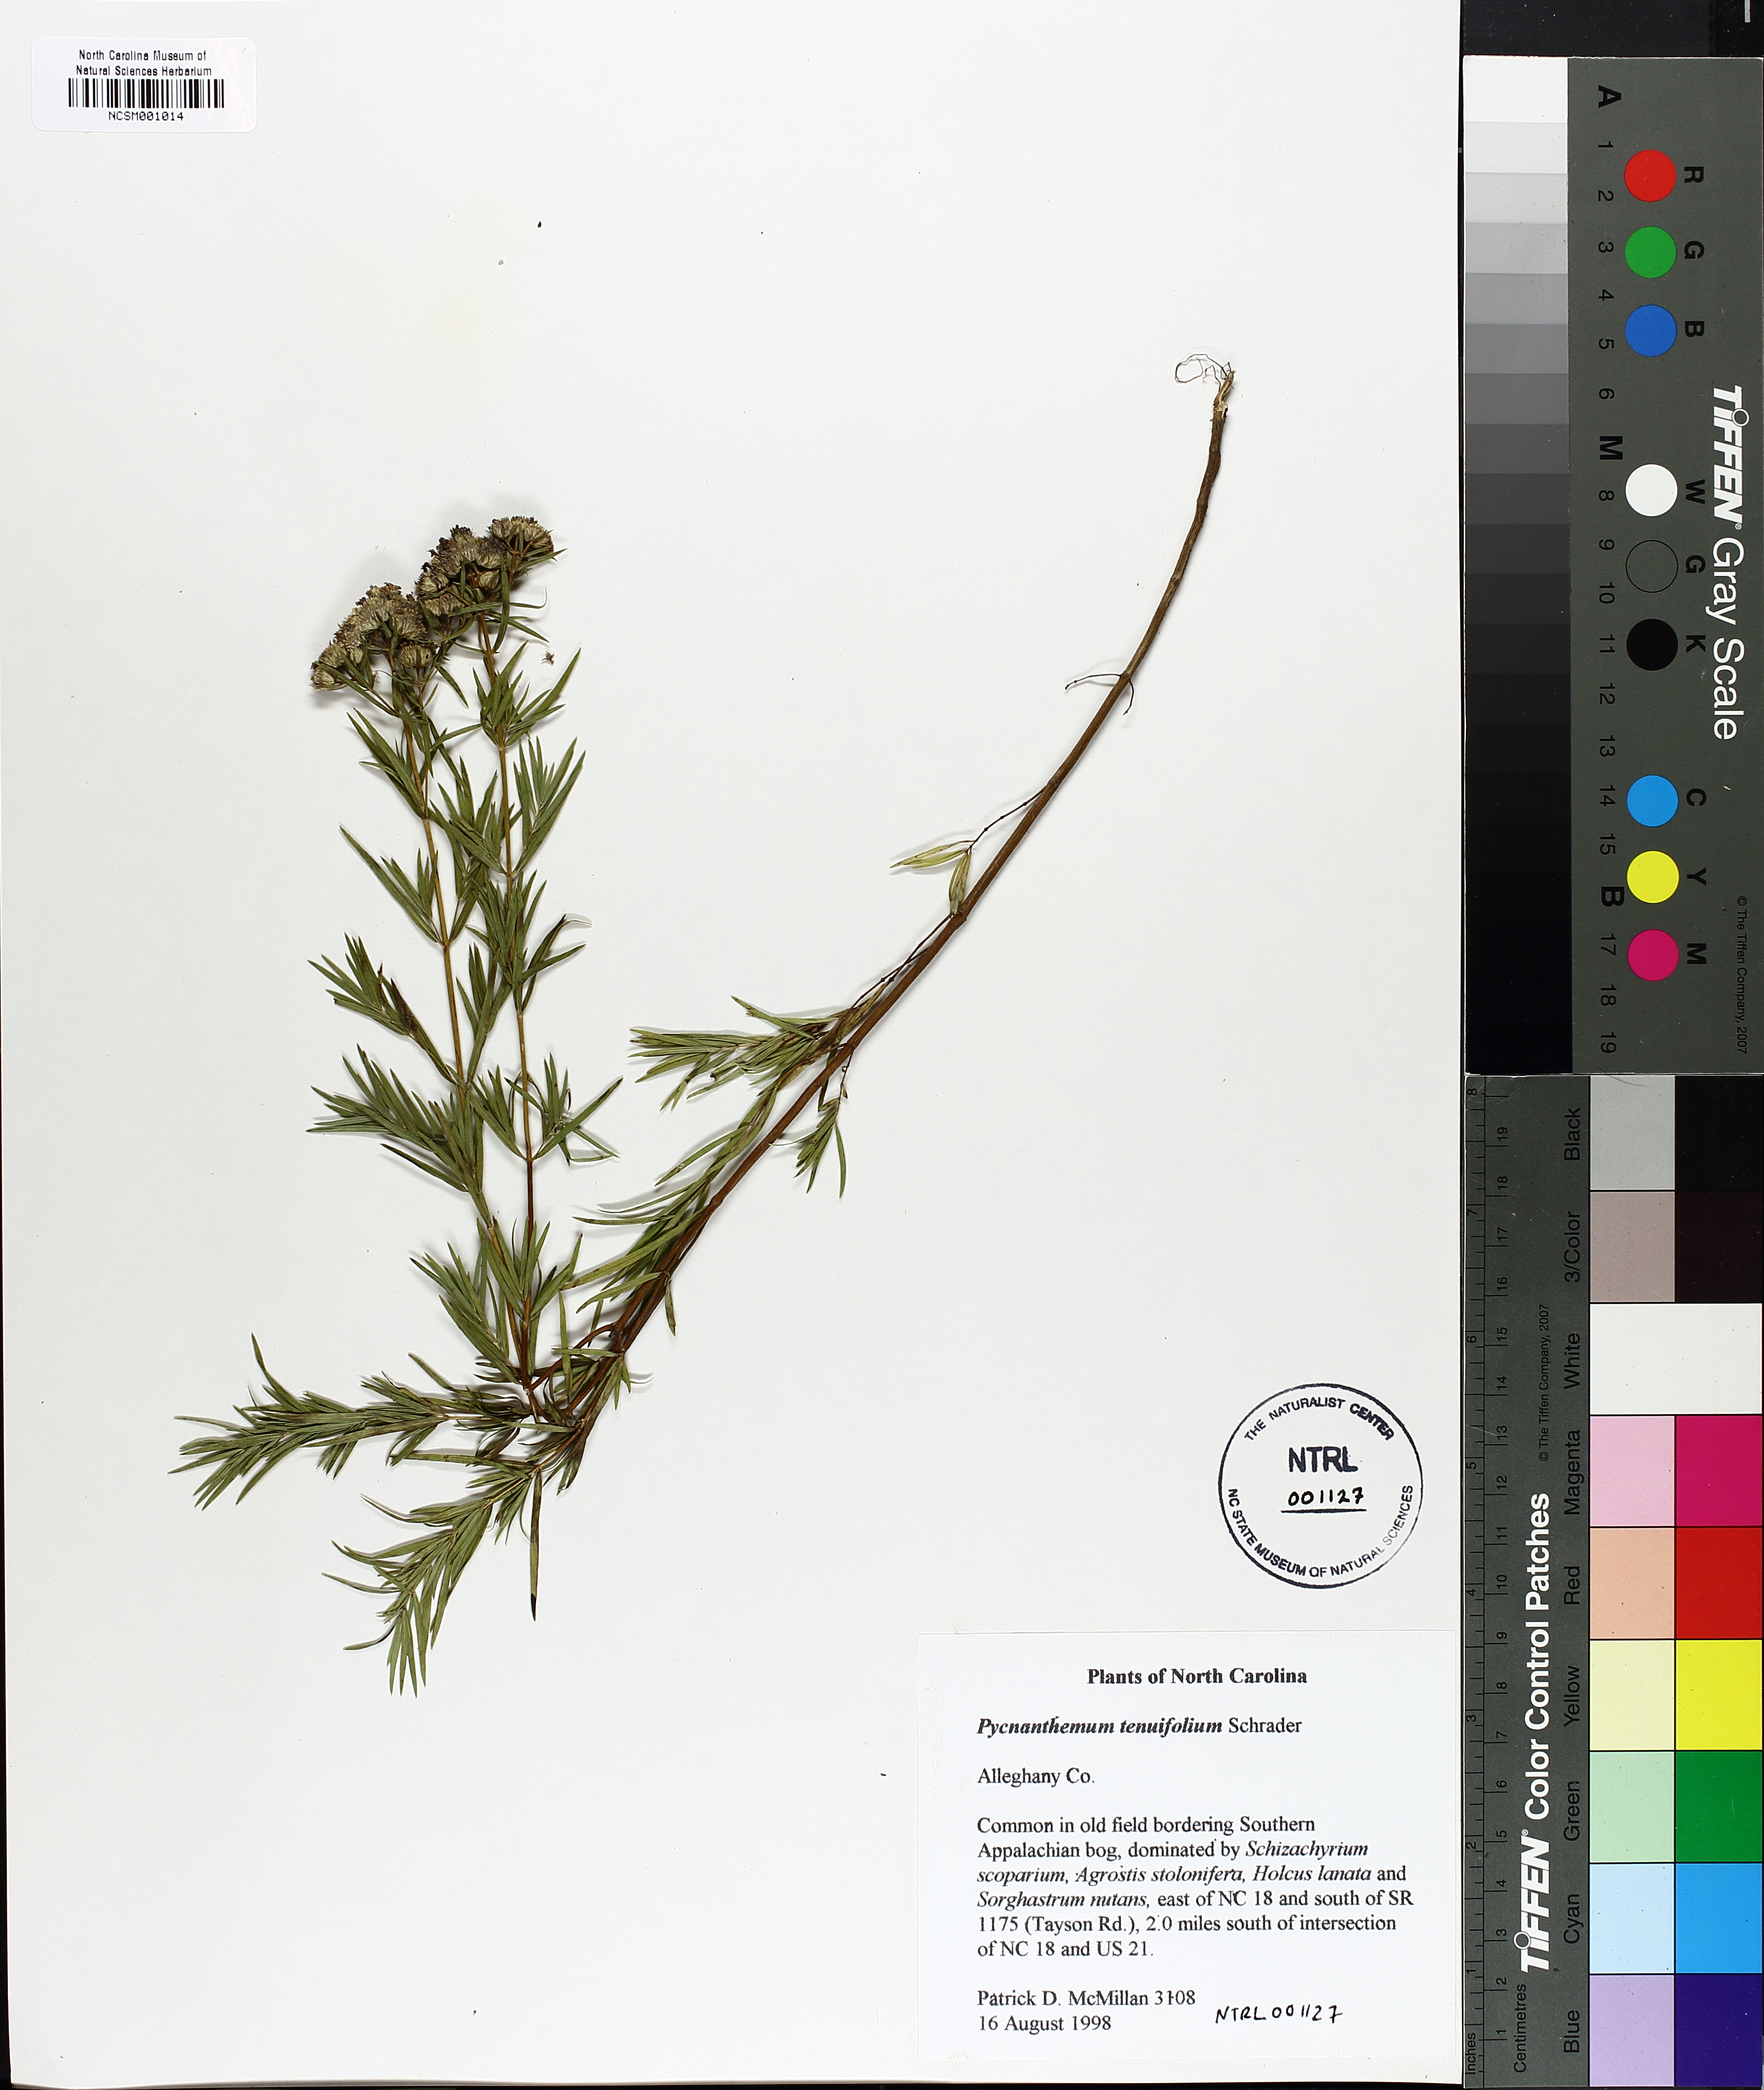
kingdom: Plantae
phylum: Tracheophyta
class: Magnoliopsida
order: Lamiales
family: Lamiaceae
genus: Pycnanthemum
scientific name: Pycnanthemum tenuifolium
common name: Narrow-leaf mountain-mint
